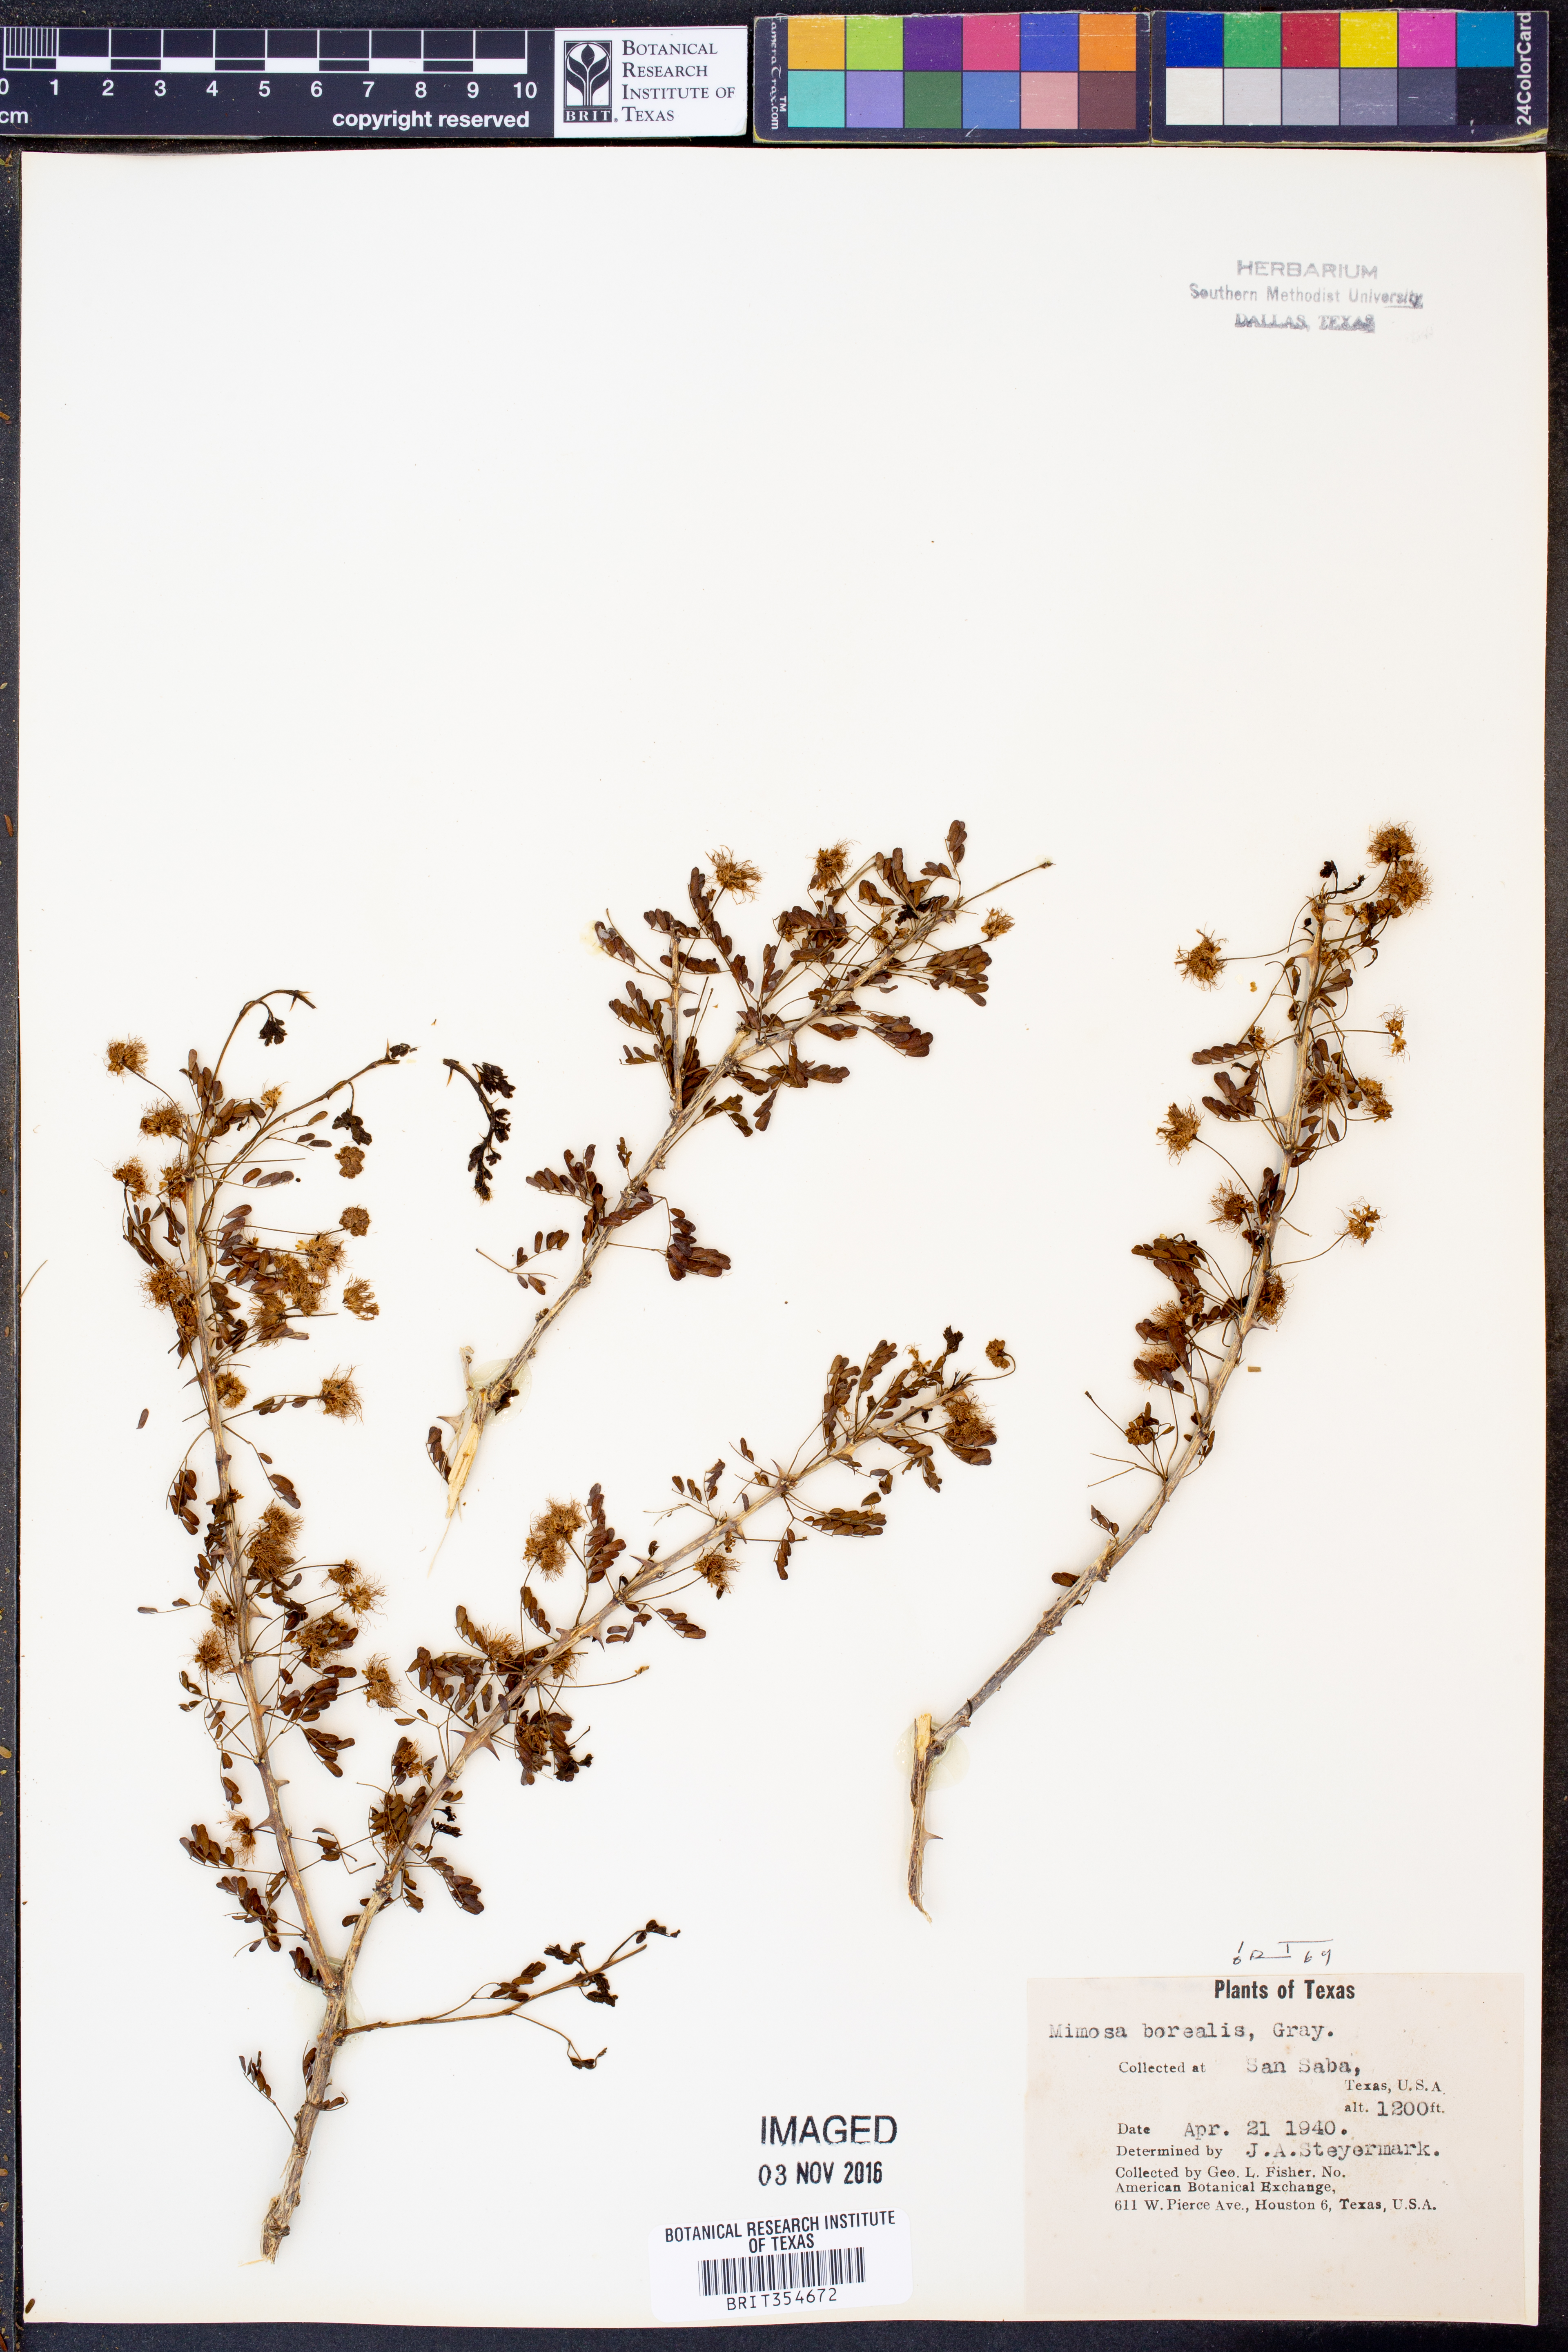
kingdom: Plantae
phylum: Tracheophyta
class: Magnoliopsida
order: Fabales
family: Fabaceae
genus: Mimosa
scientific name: Mimosa borealis
